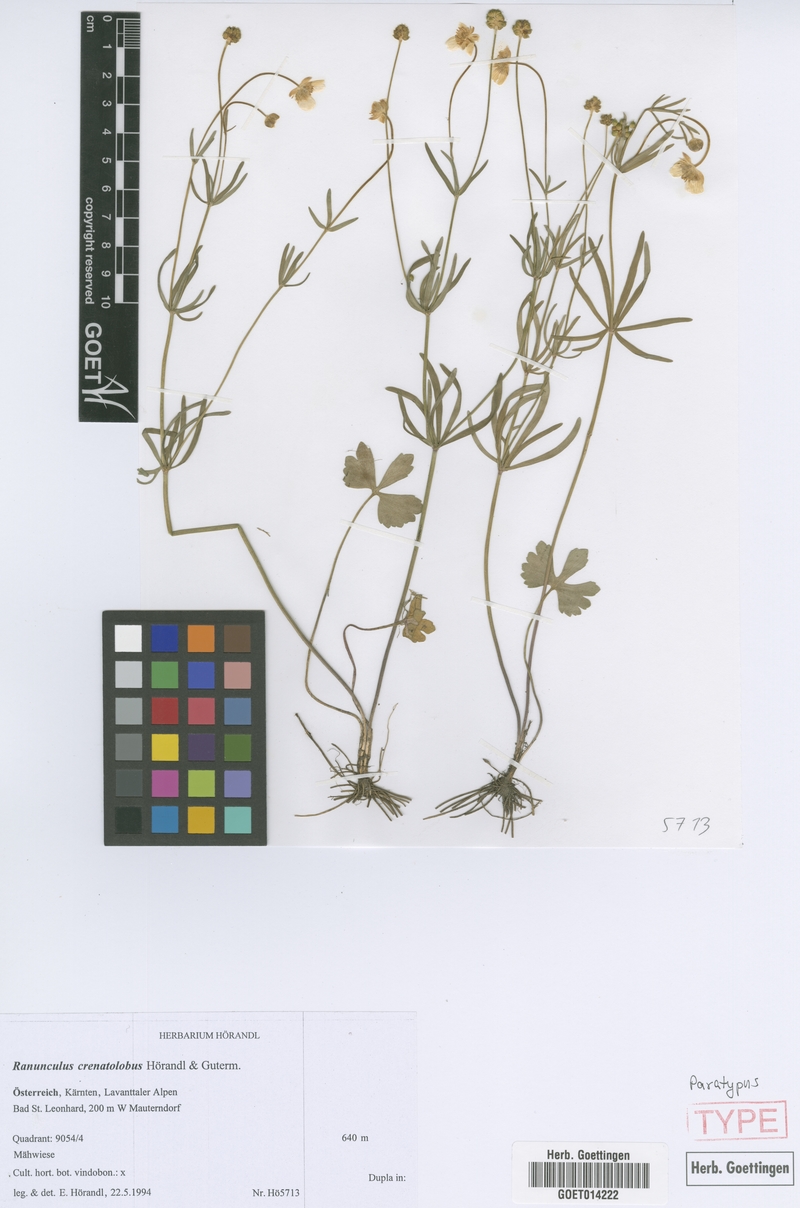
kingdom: Plantae
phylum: Tracheophyta
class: Magnoliopsida
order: Ranunculales
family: Ranunculaceae
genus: Ranunculus
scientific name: Ranunculus crenatolobus
